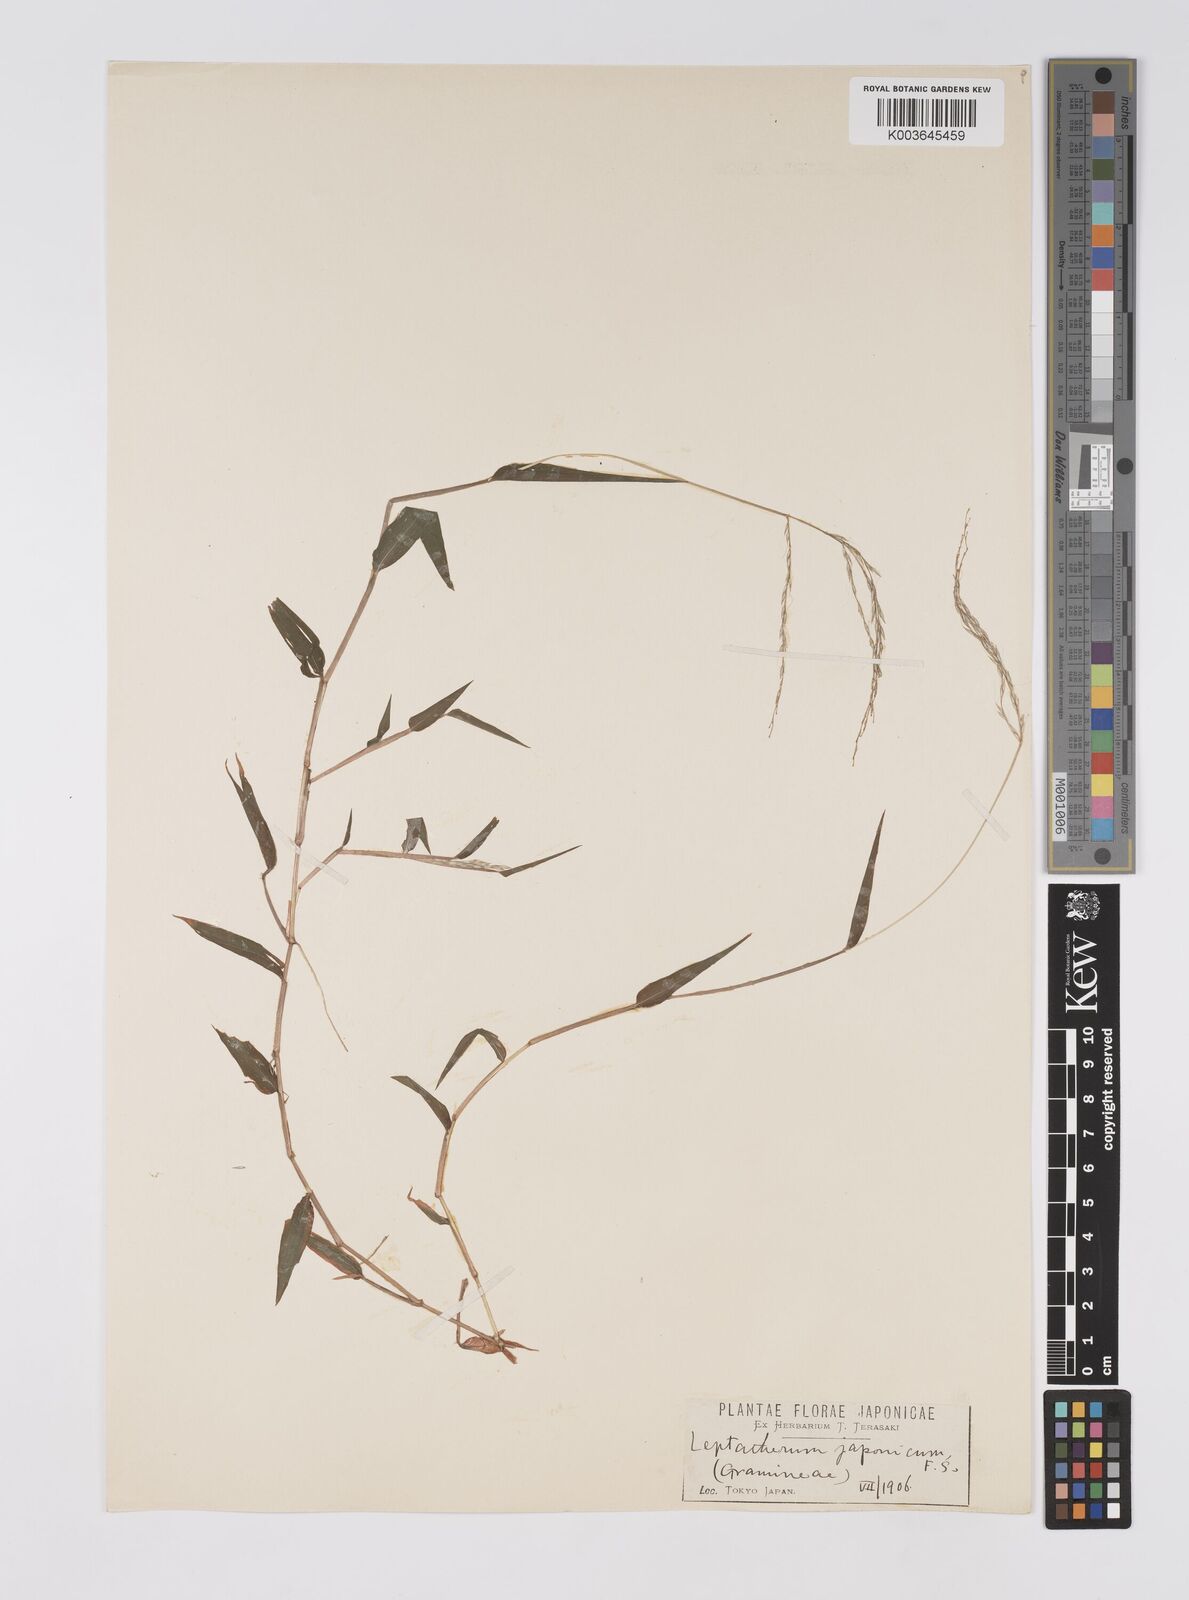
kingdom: Plantae
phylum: Tracheophyta
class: Liliopsida
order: Poales
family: Poaceae
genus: Microstegium
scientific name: Microstegium japonicum
